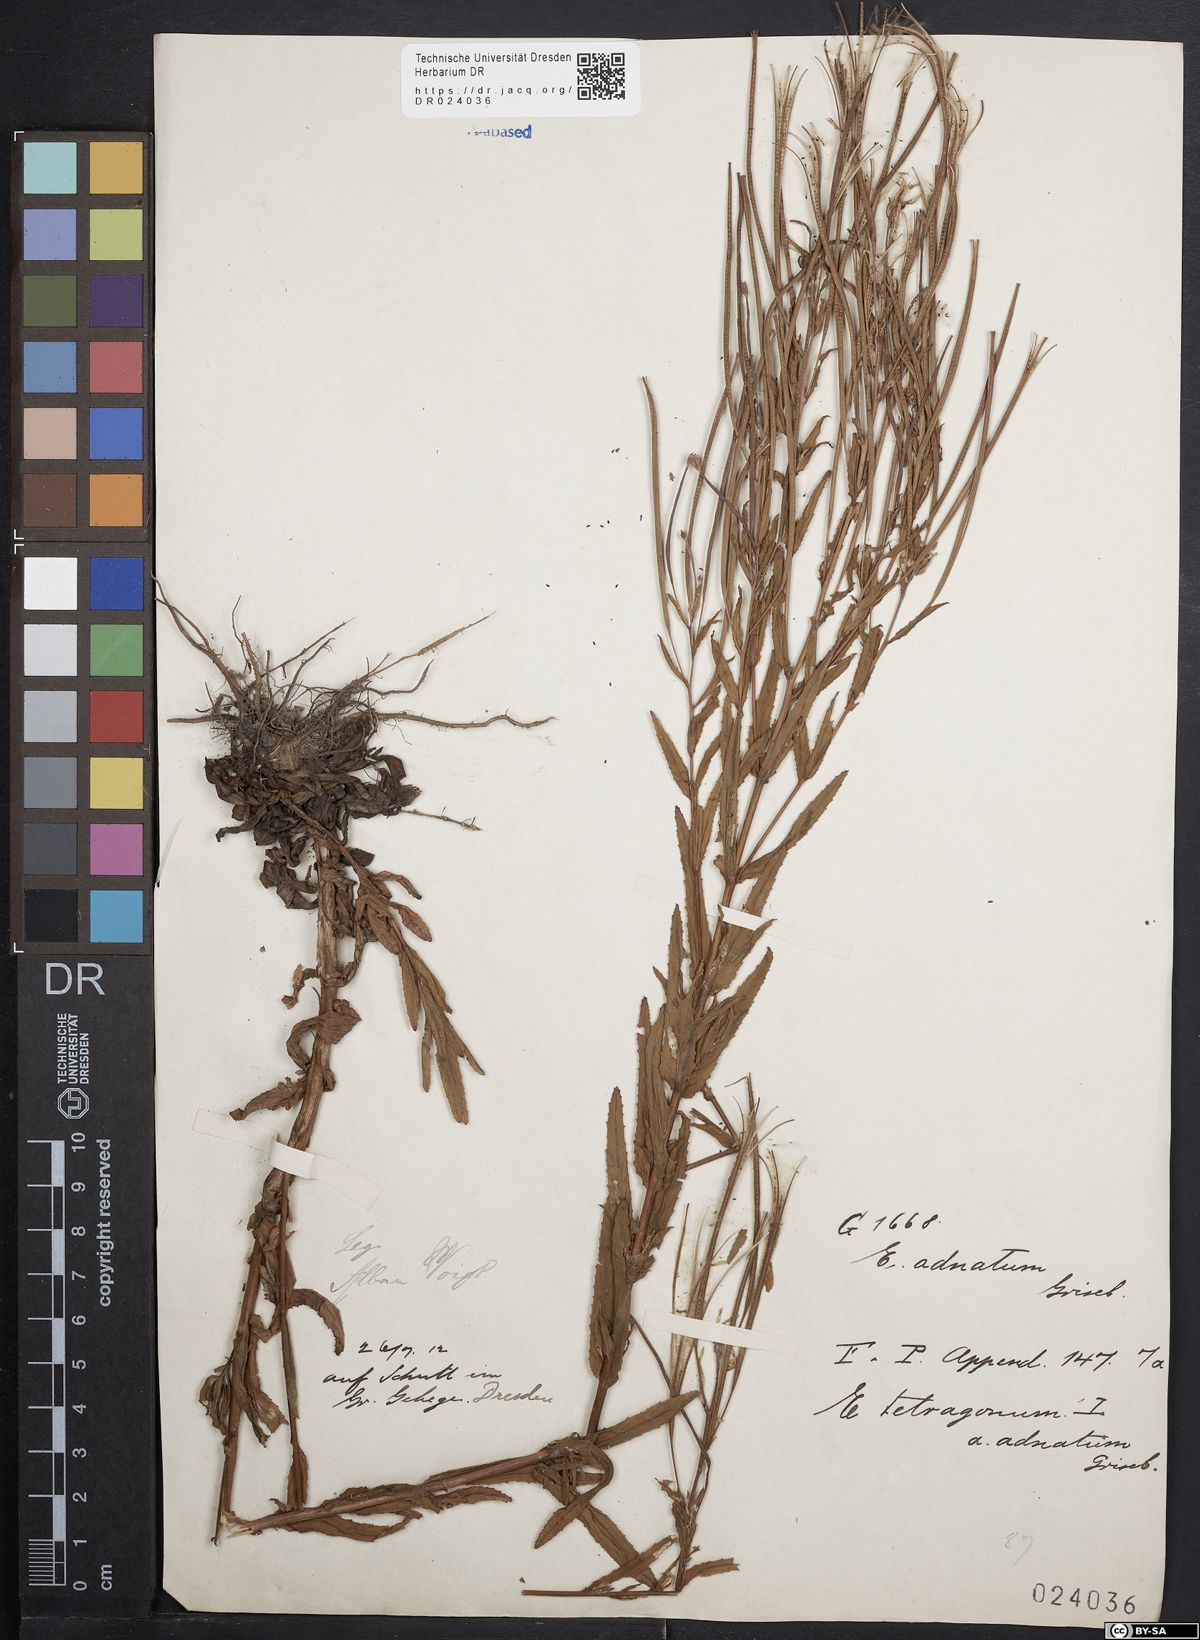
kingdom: Plantae
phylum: Tracheophyta
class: Magnoliopsida
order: Myrtales
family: Onagraceae
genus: Epilobium
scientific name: Epilobium tetragonum
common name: Square-stemmed willowherb
